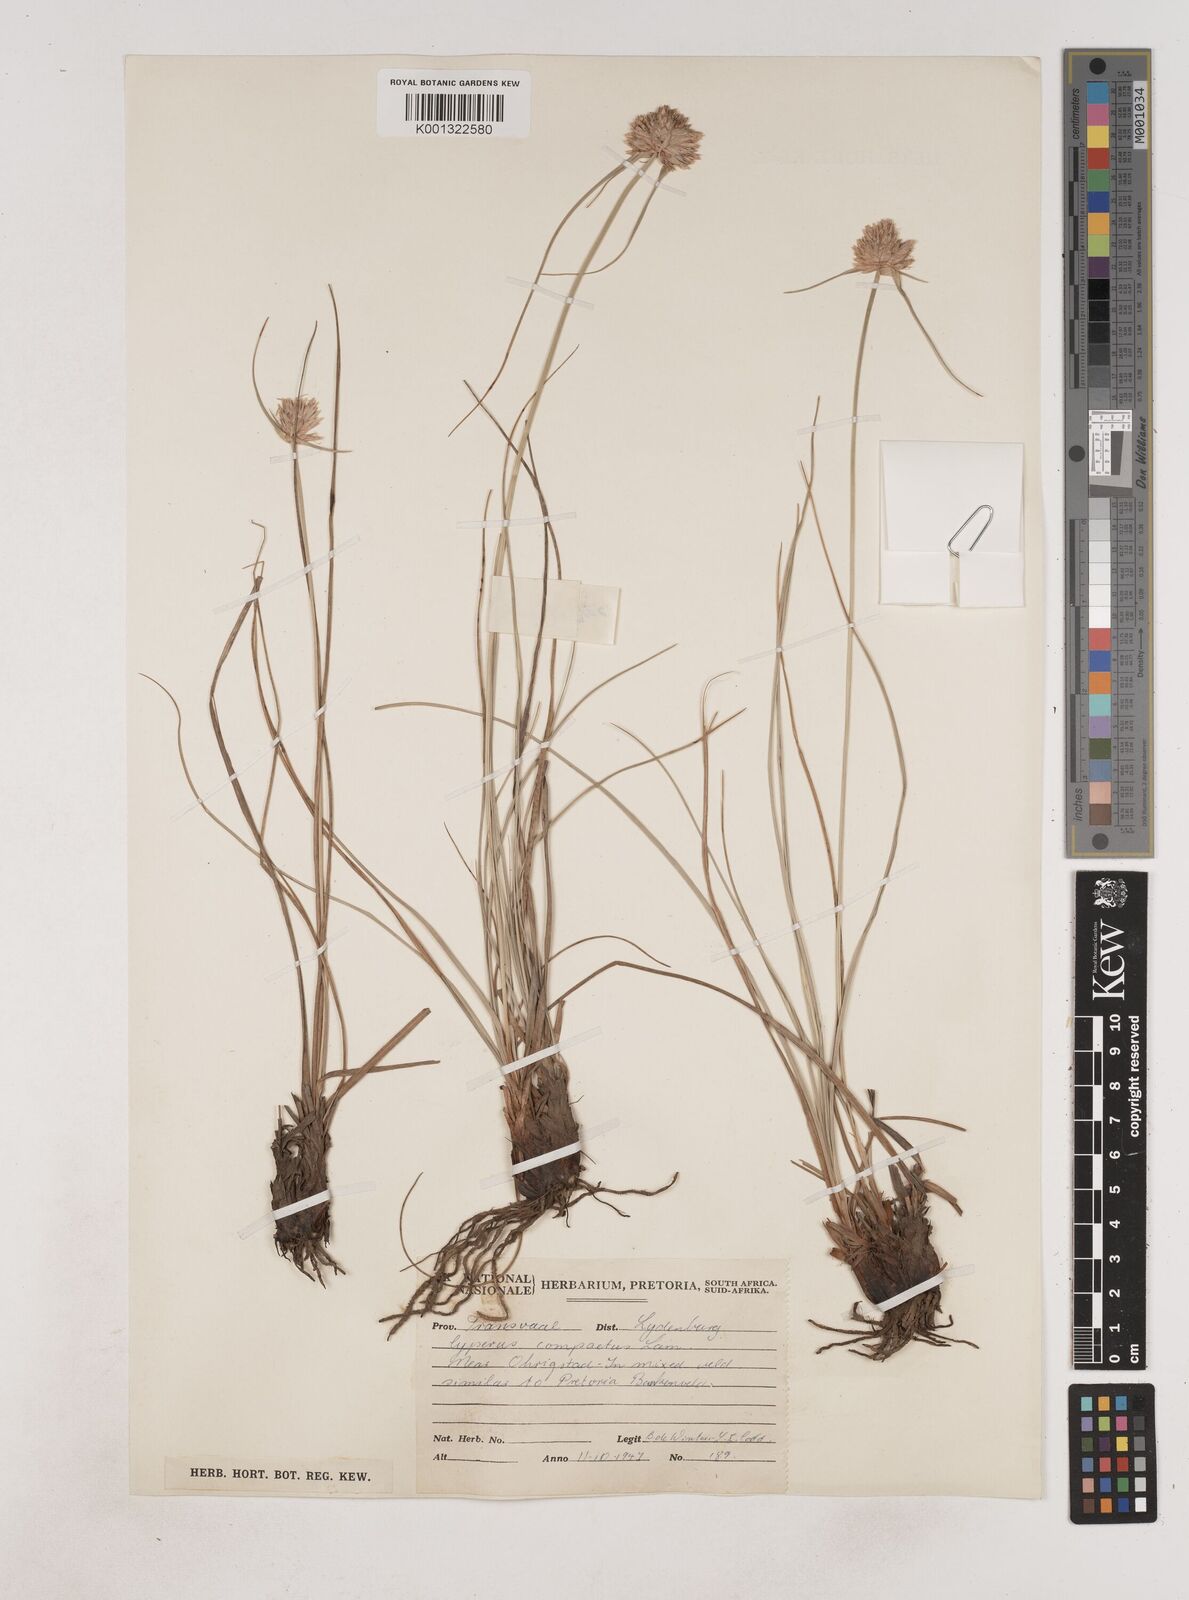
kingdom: Plantae
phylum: Tracheophyta
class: Liliopsida
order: Poales
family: Cyperaceae
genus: Cyperus
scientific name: Cyperus niveus
